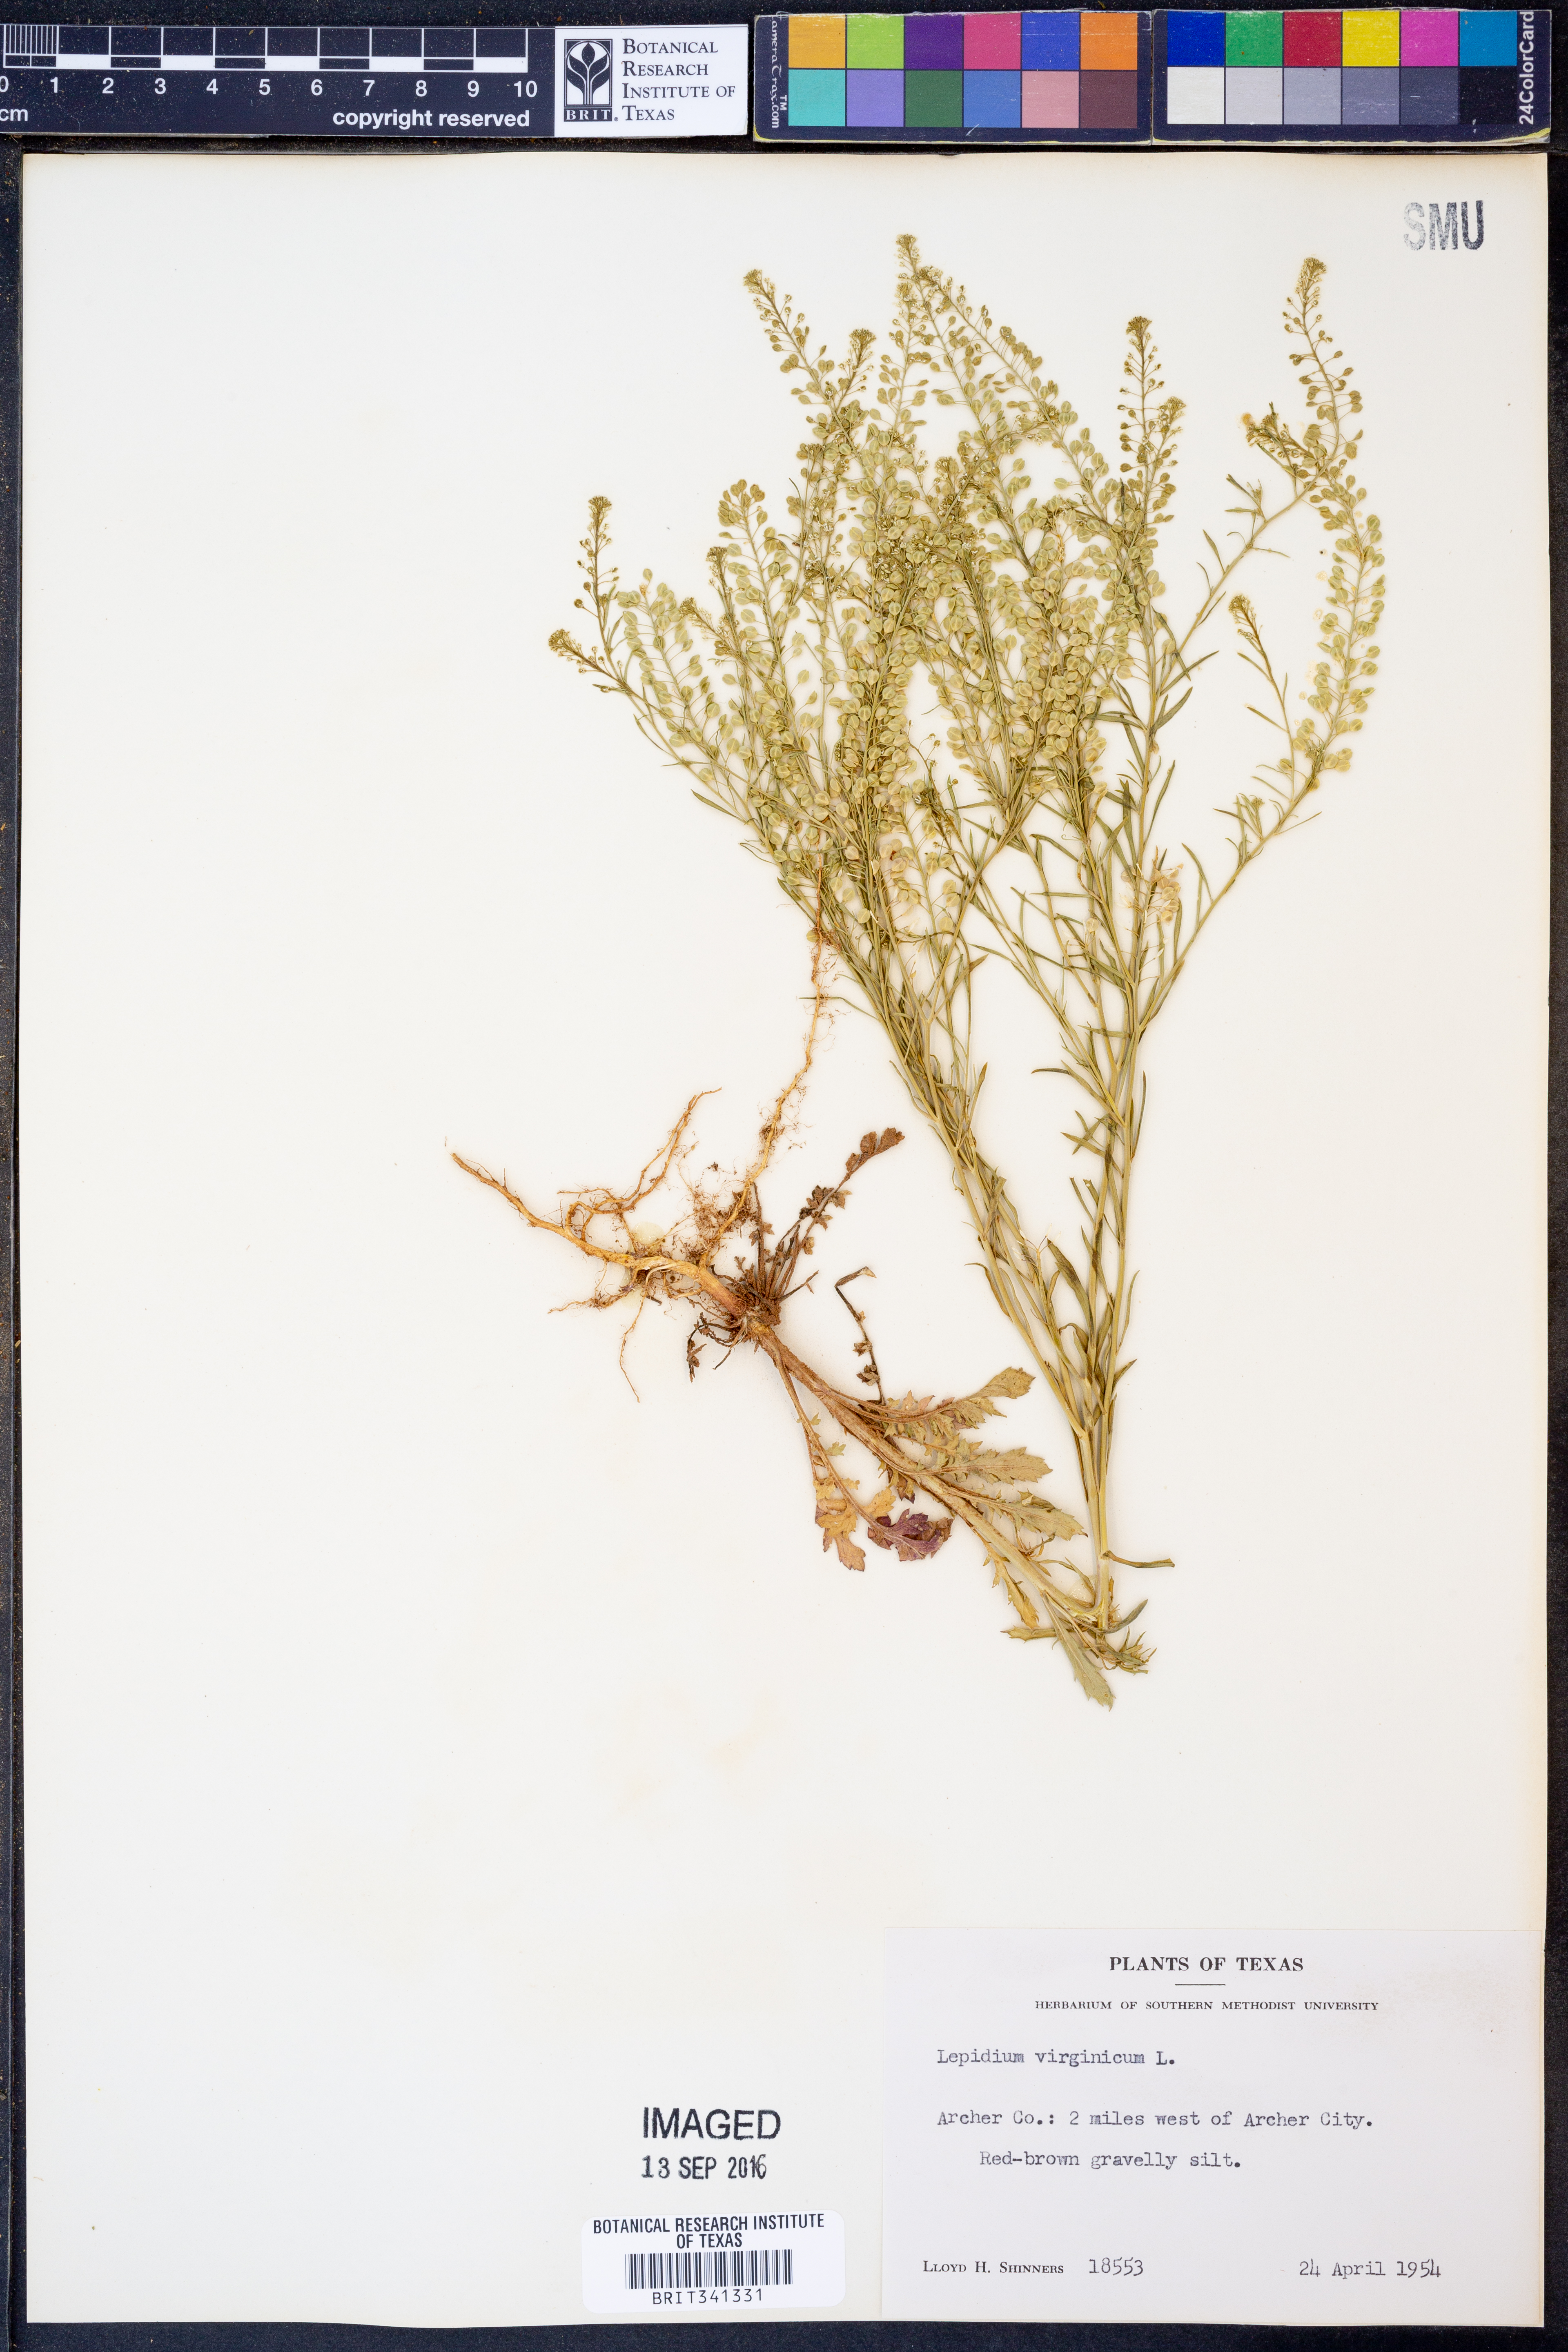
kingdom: Plantae
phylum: Tracheophyta
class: Magnoliopsida
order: Brassicales
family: Brassicaceae
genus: Lepidium
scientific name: Lepidium virginicum
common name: Least pepperwort
